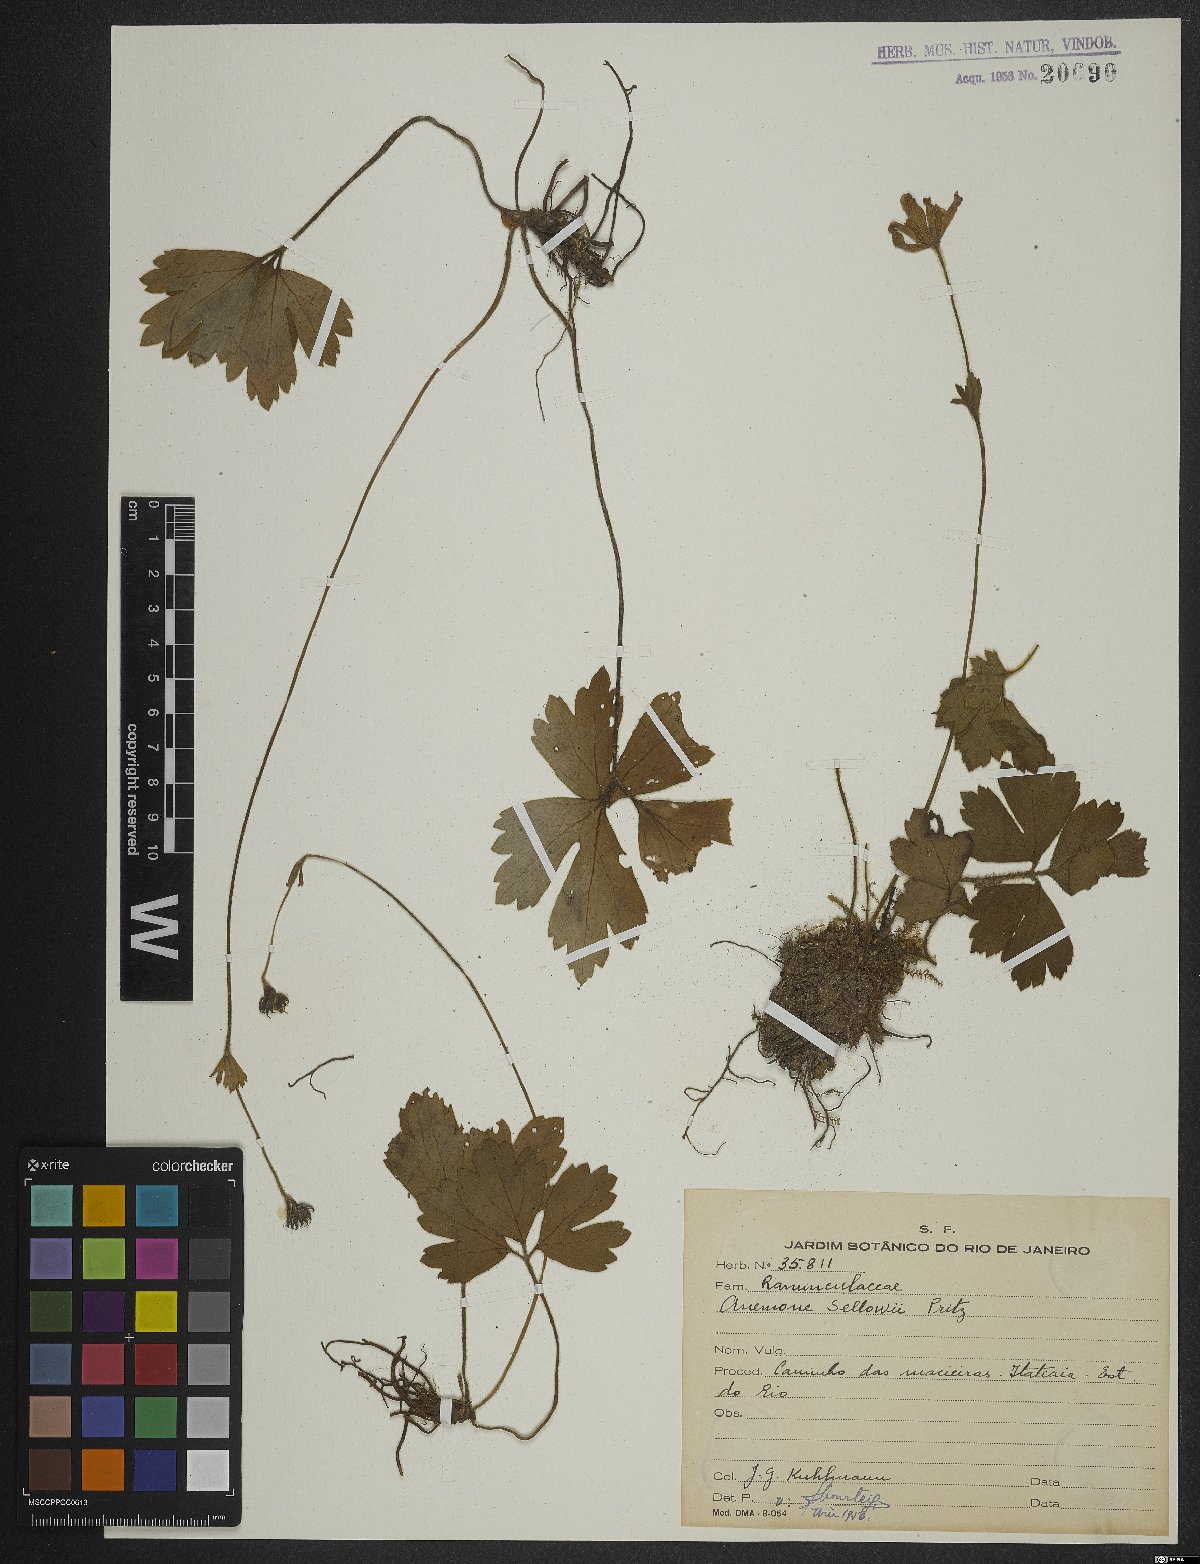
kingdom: Plantae
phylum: Tracheophyta
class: Magnoliopsida
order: Ranunculales
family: Ranunculaceae
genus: Knowltonia
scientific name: Knowltonia sellowii
